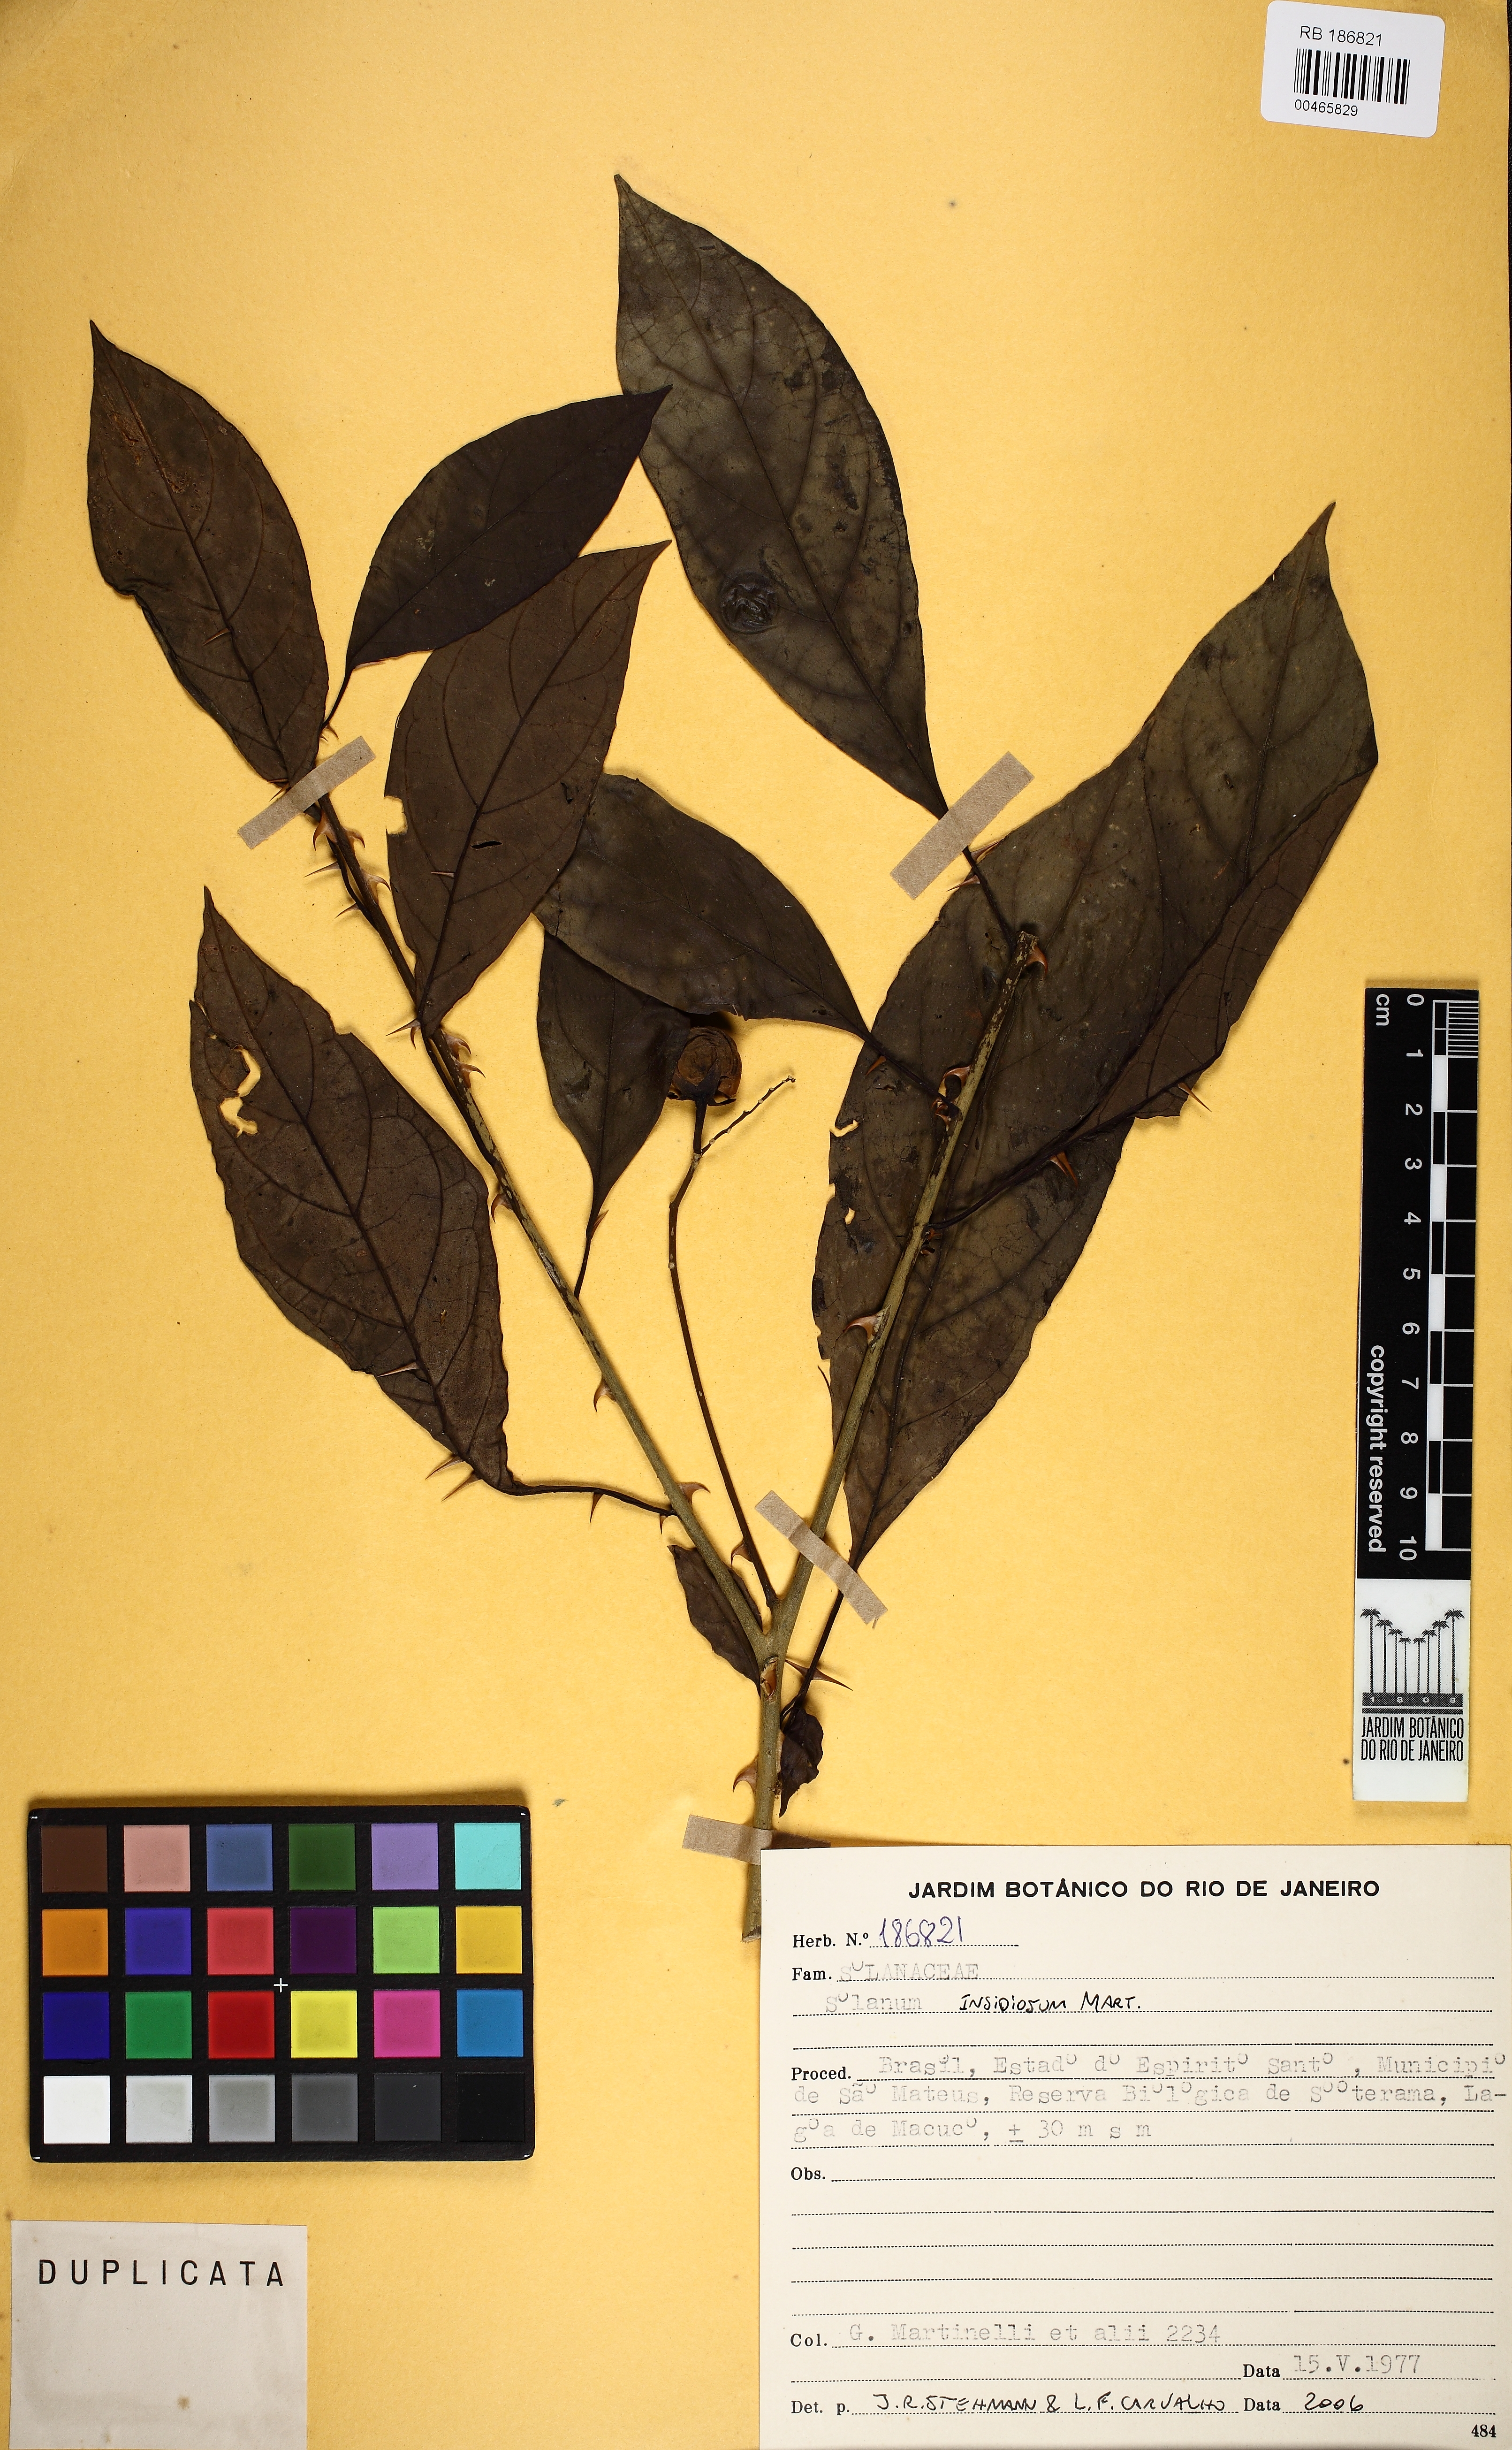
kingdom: Plantae
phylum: Tracheophyta
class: Magnoliopsida
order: Solanales
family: Solanaceae
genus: Solanum
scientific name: Solanum insidiosum
